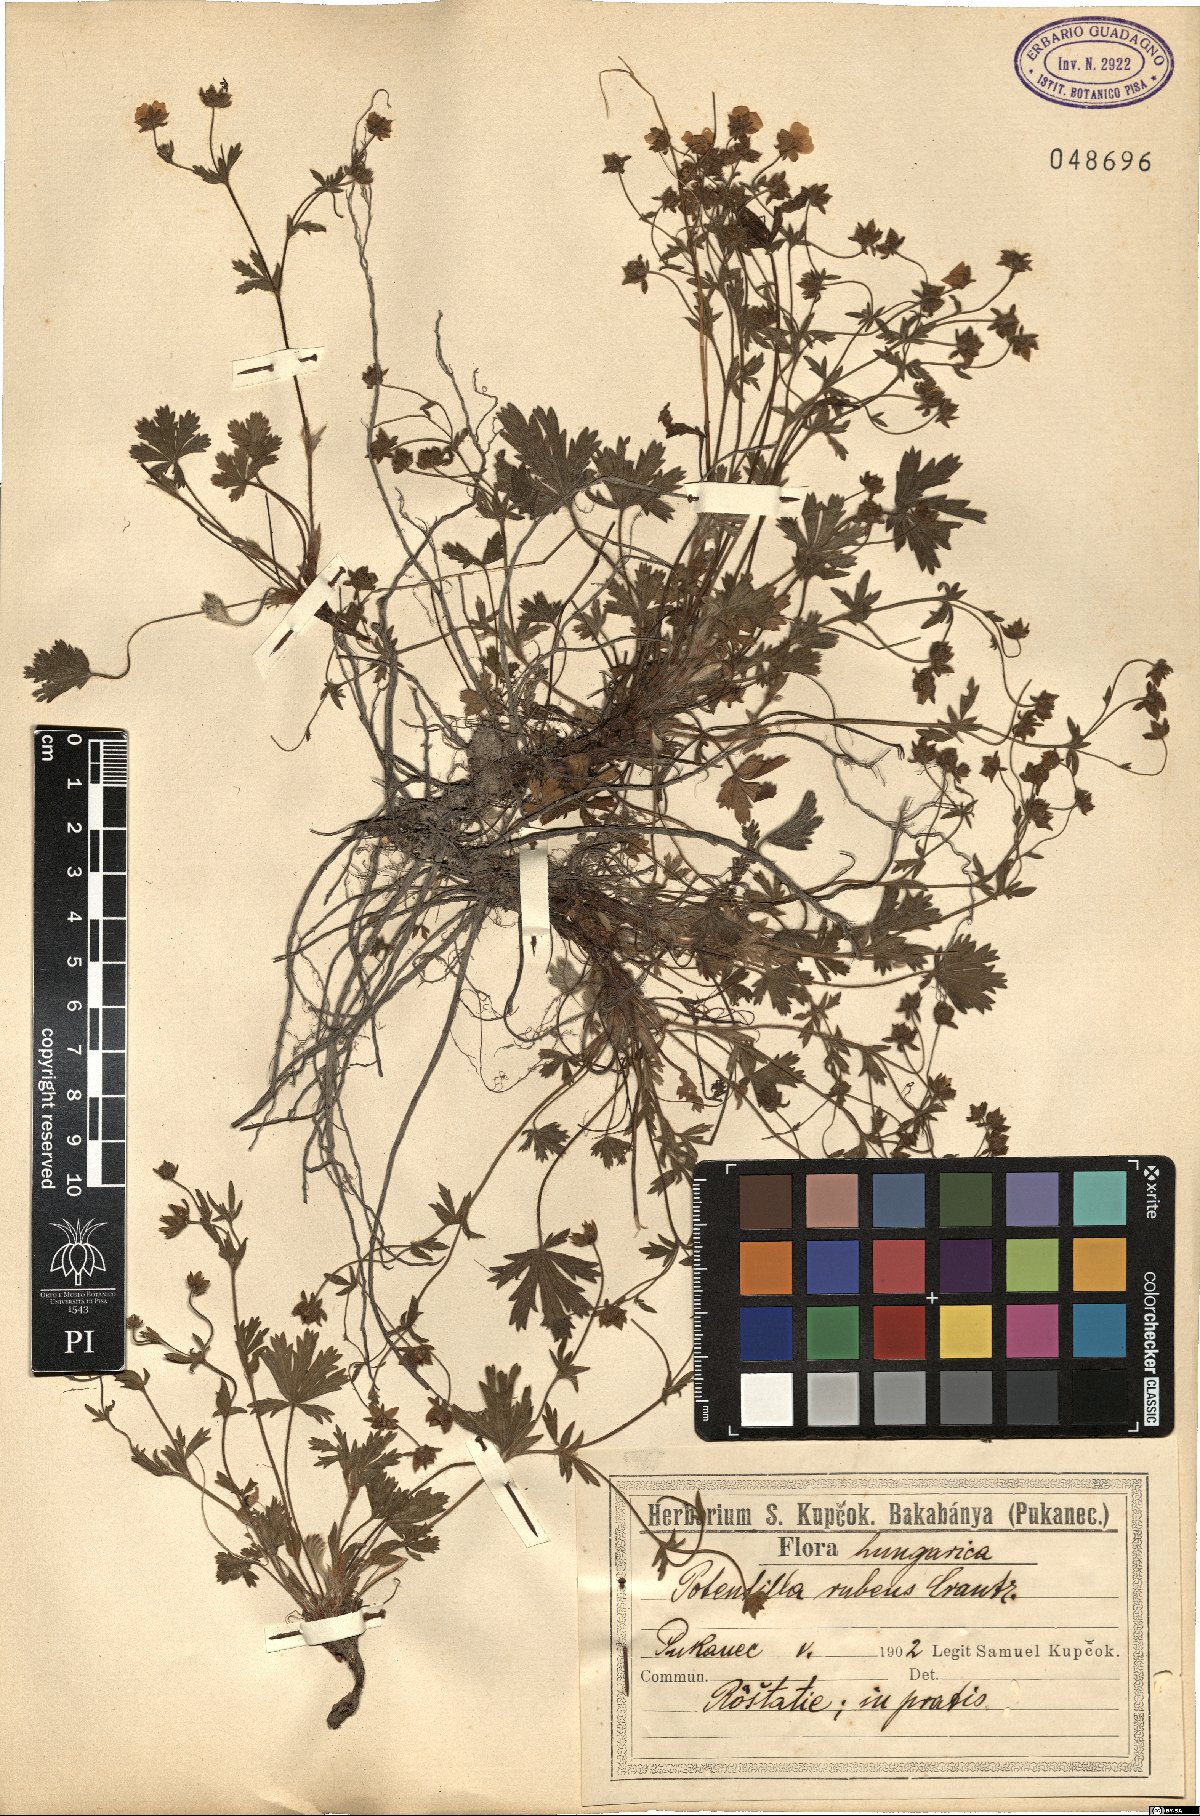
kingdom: Plantae
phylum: Tracheophyta
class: Magnoliopsida
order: Rosales
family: Rosaceae
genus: Potentilla
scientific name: Potentilla heptaphylla
